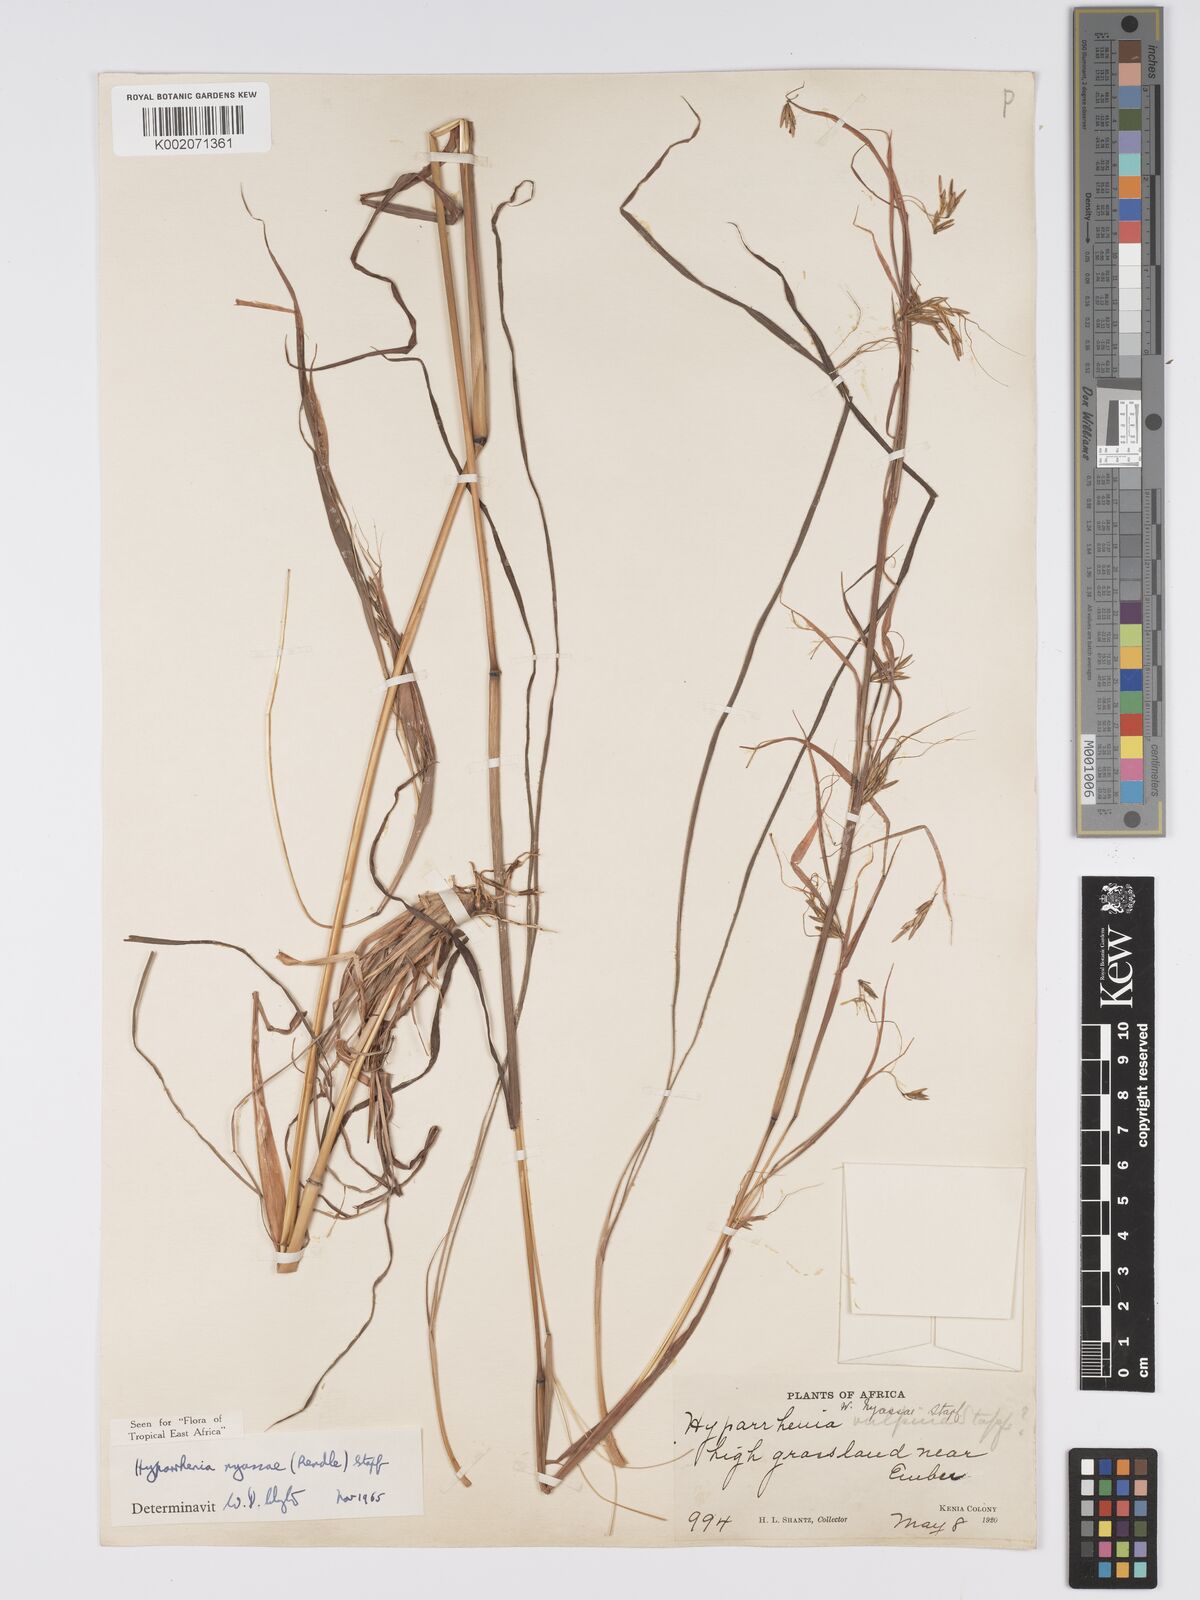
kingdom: Plantae
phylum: Tracheophyta
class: Liliopsida
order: Poales
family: Poaceae
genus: Hyparrhenia
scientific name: Hyparrhenia nyassae
